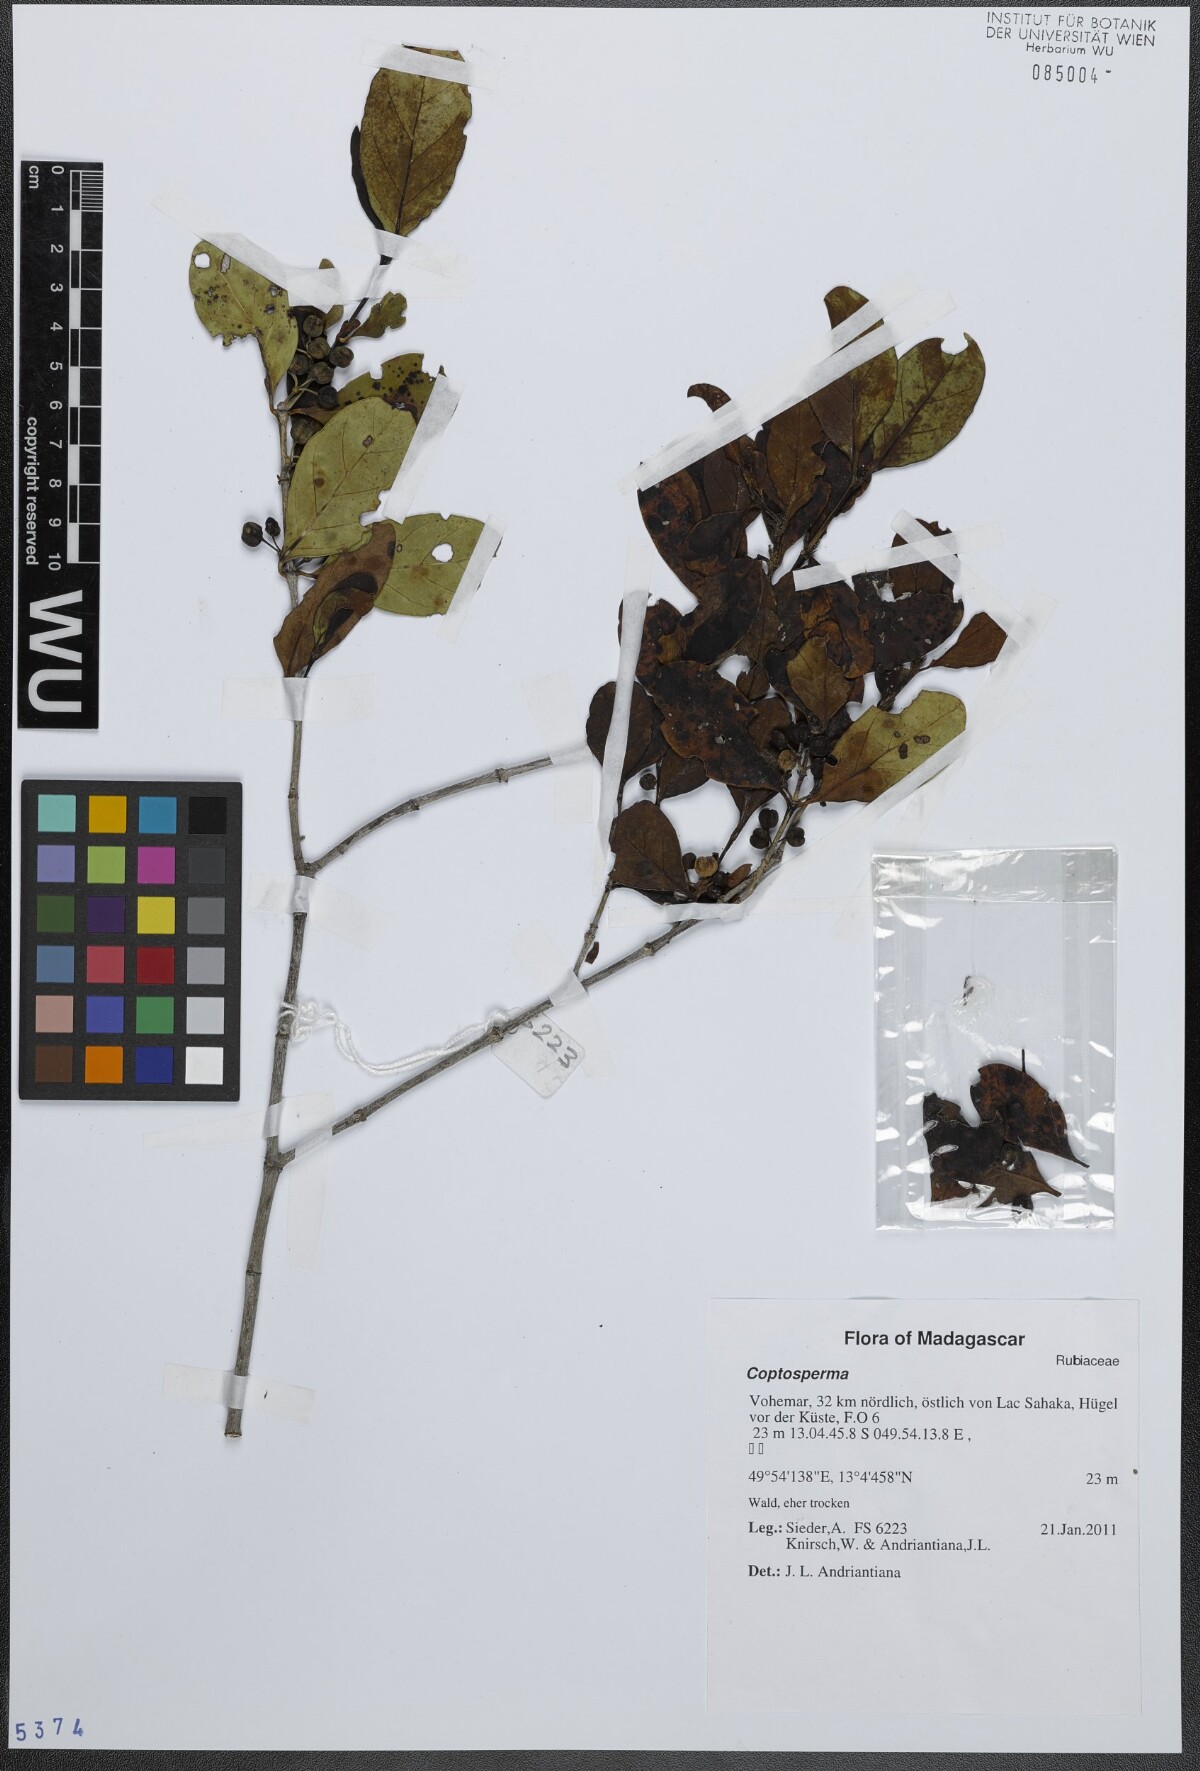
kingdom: Plantae
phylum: Tracheophyta
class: Magnoliopsida
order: Gentianales
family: Rubiaceae
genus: Coptosperma
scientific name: Coptosperma
